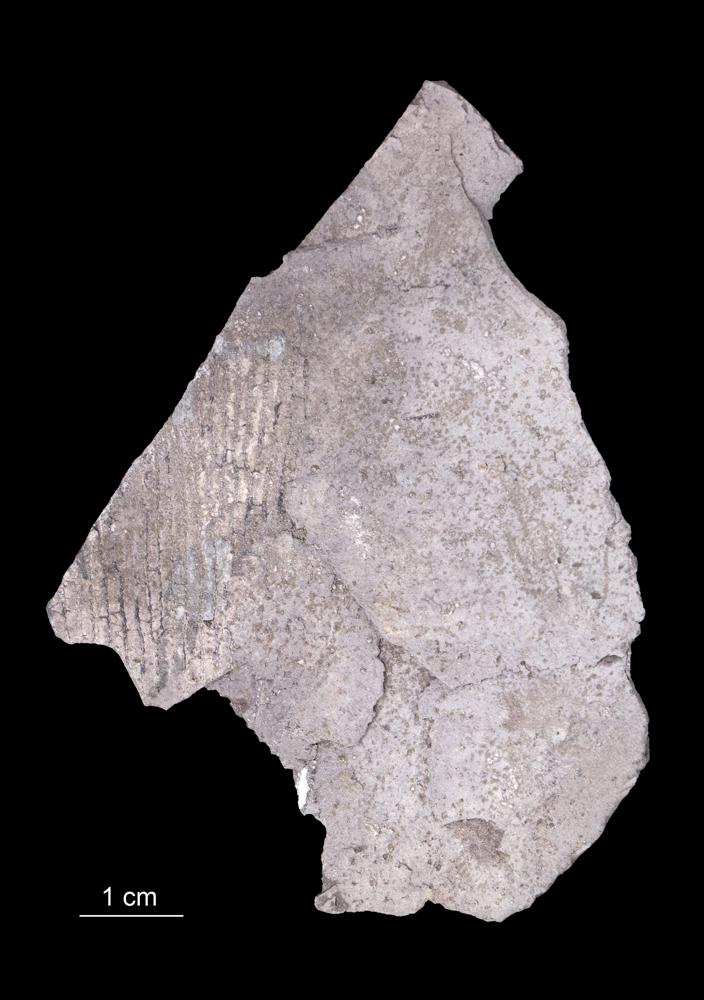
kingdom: Animalia
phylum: Hemichordata
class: Pterobranchia
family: Anisograptidae
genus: Rhabdinopora
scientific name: Rhabdinopora Gorgonia flabelliformis
